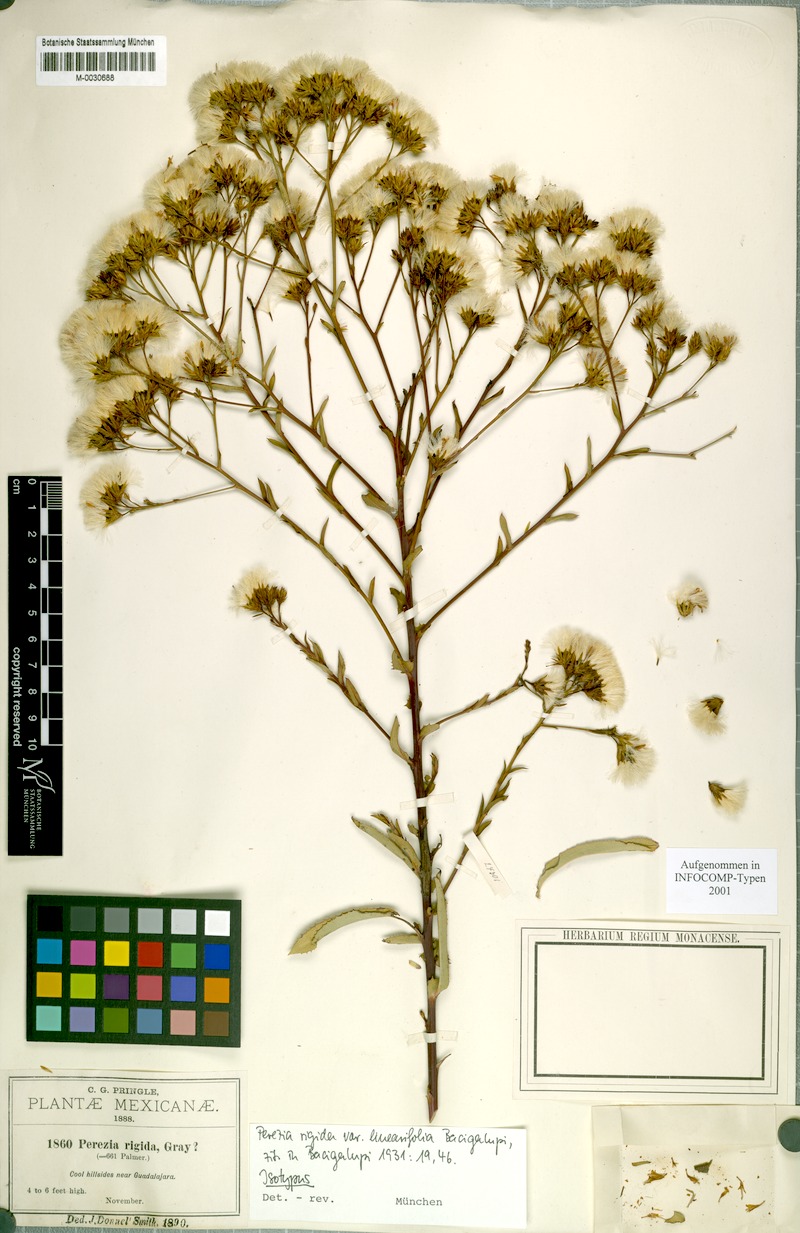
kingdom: Plantae
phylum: Tracheophyta
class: Magnoliopsida
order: Asterales
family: Asteraceae
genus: Acourtia
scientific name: Acourtia fruticosa
